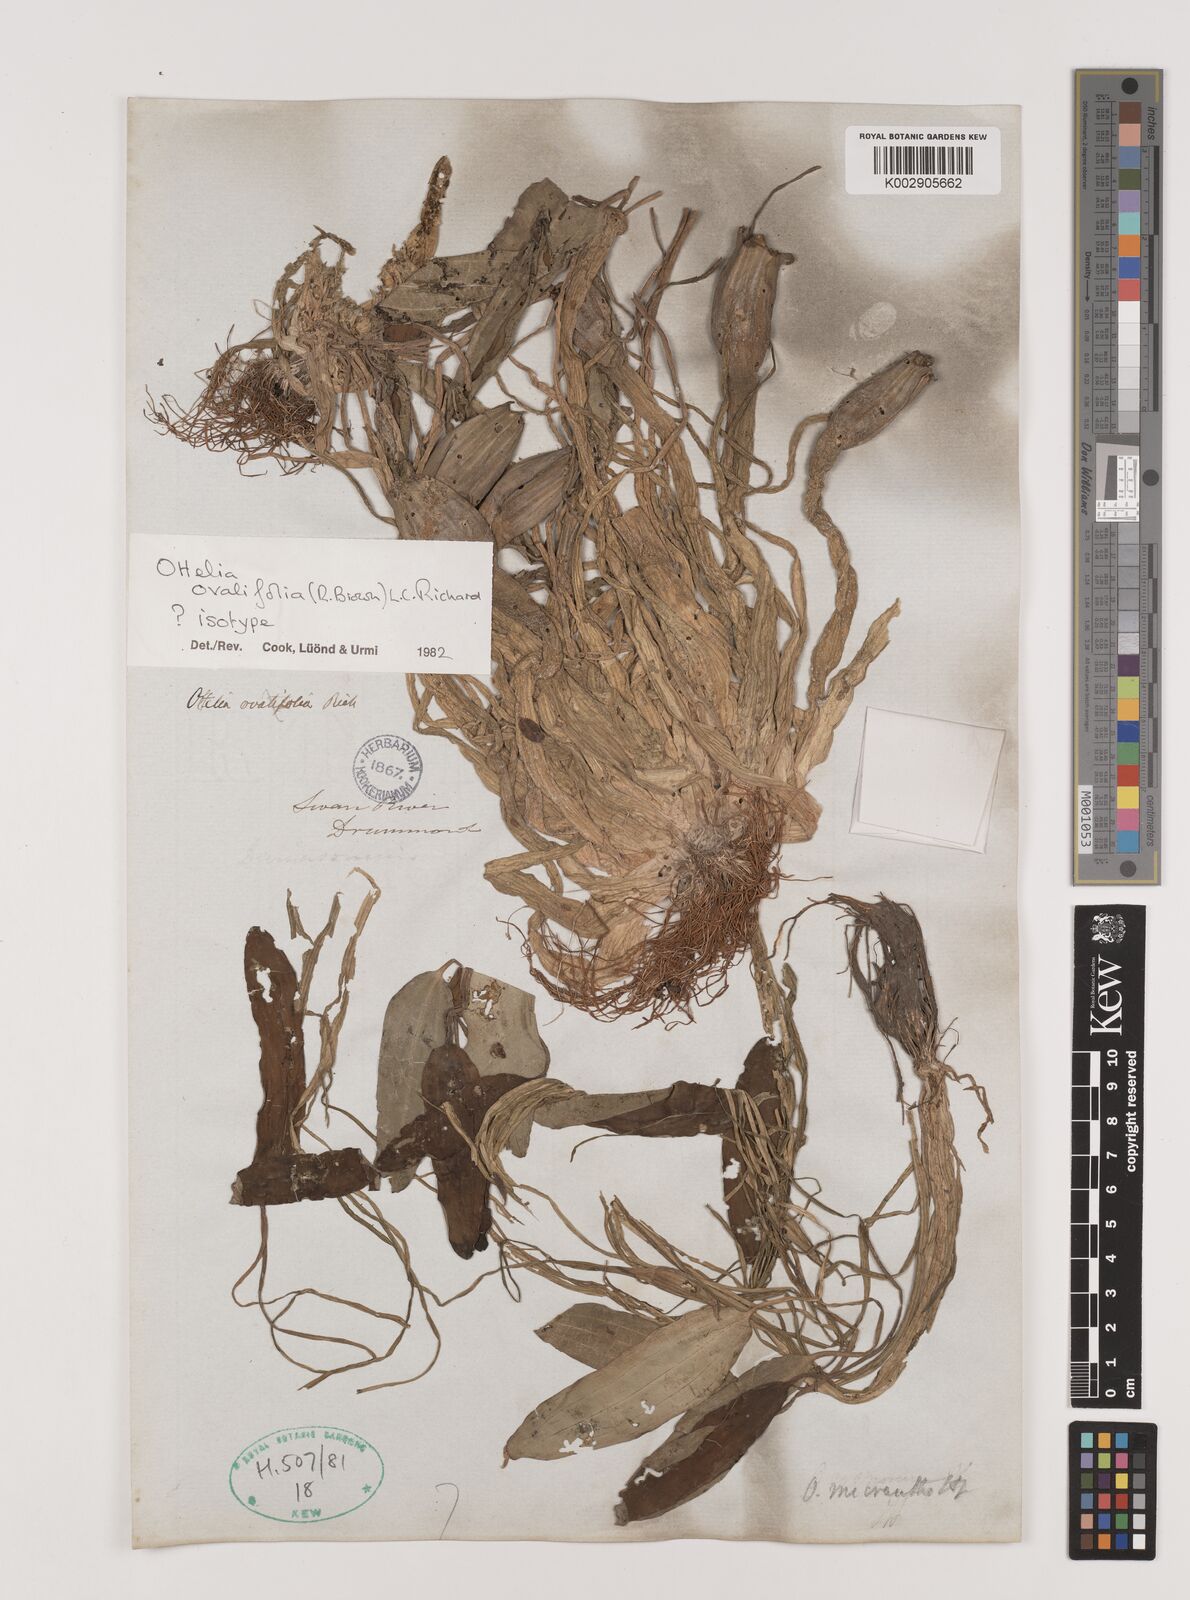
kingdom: Plantae
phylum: Tracheophyta
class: Liliopsida
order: Alismatales
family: Hydrocharitaceae
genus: Ottelia
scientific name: Ottelia ovalifolia
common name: Swamp-lily
